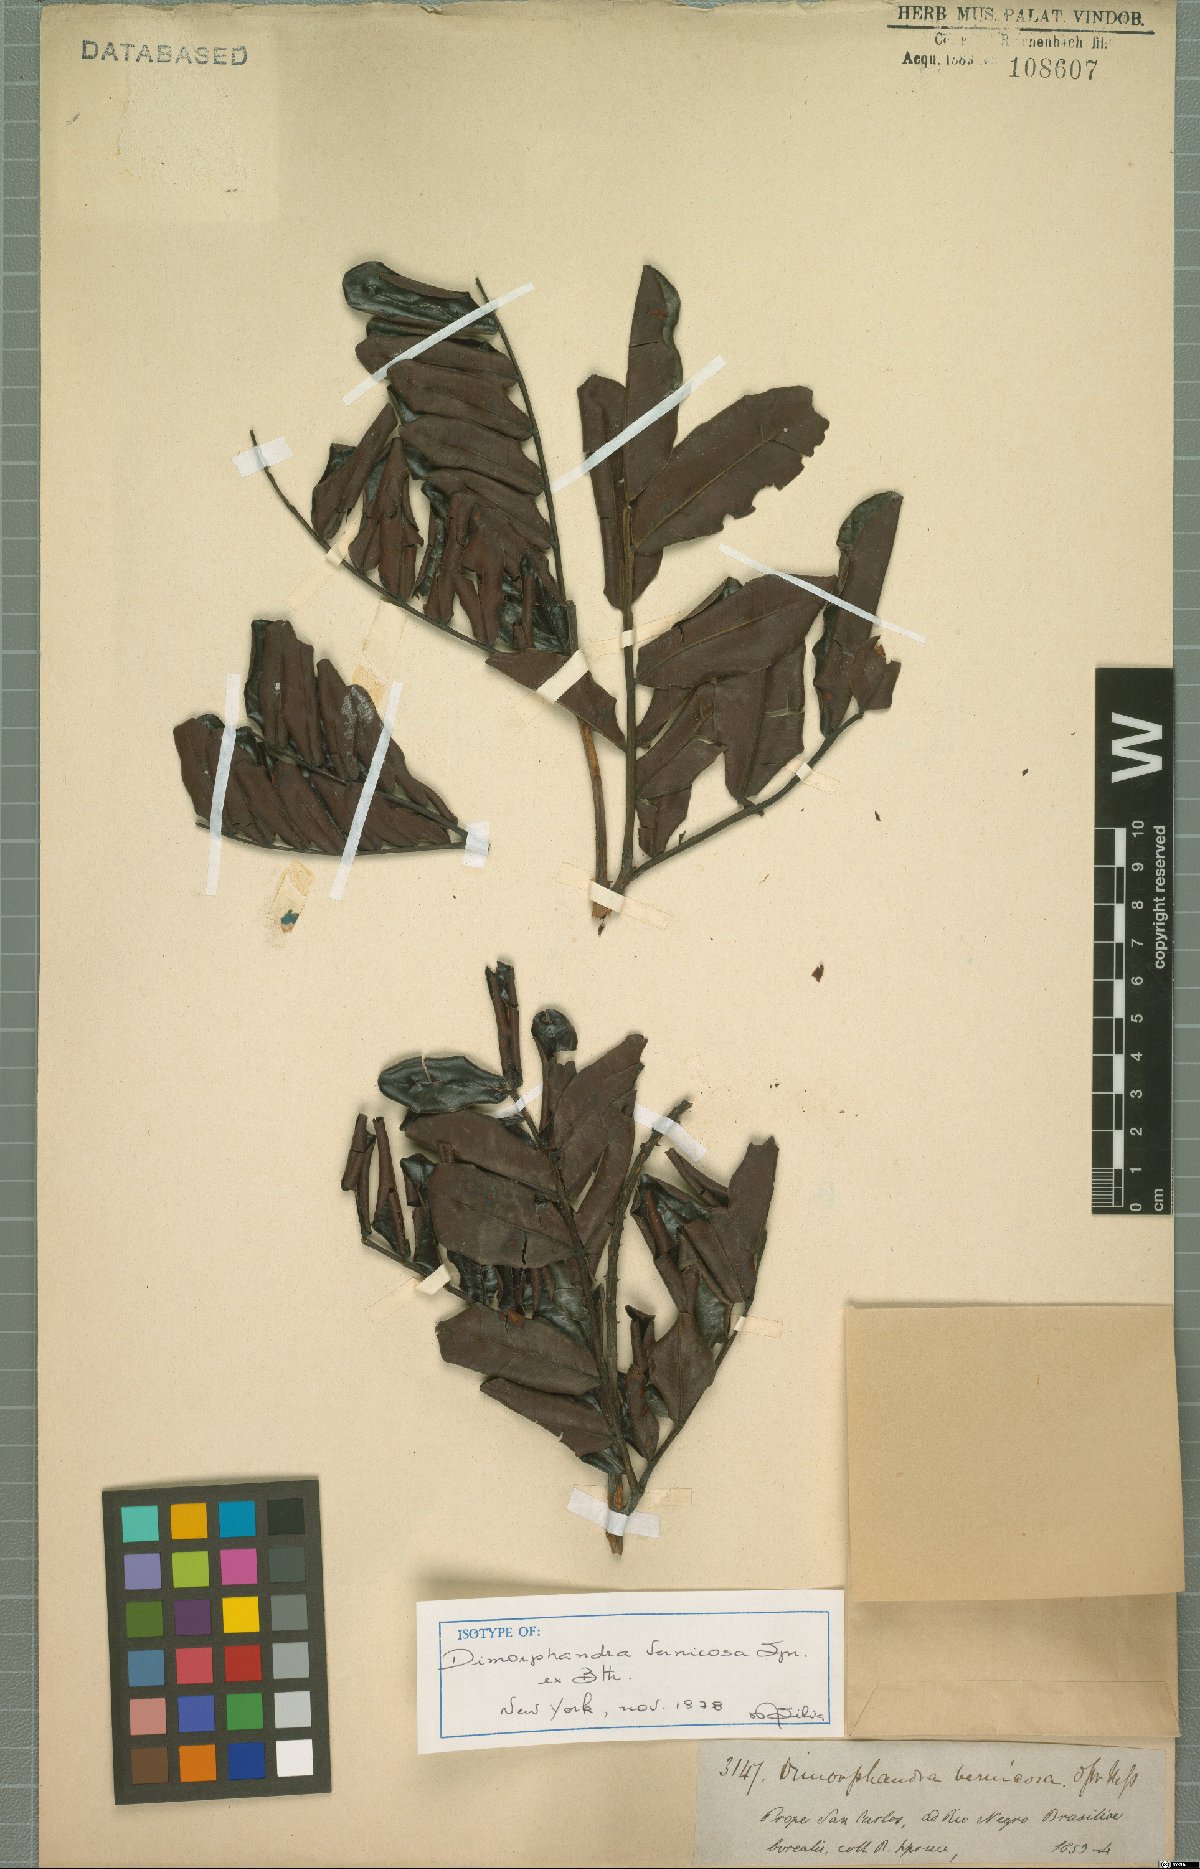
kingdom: Plantae
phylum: Tracheophyta
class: Magnoliopsida
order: Fabales
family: Fabaceae
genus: Dimorphandra
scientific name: Dimorphandra vernicosa
